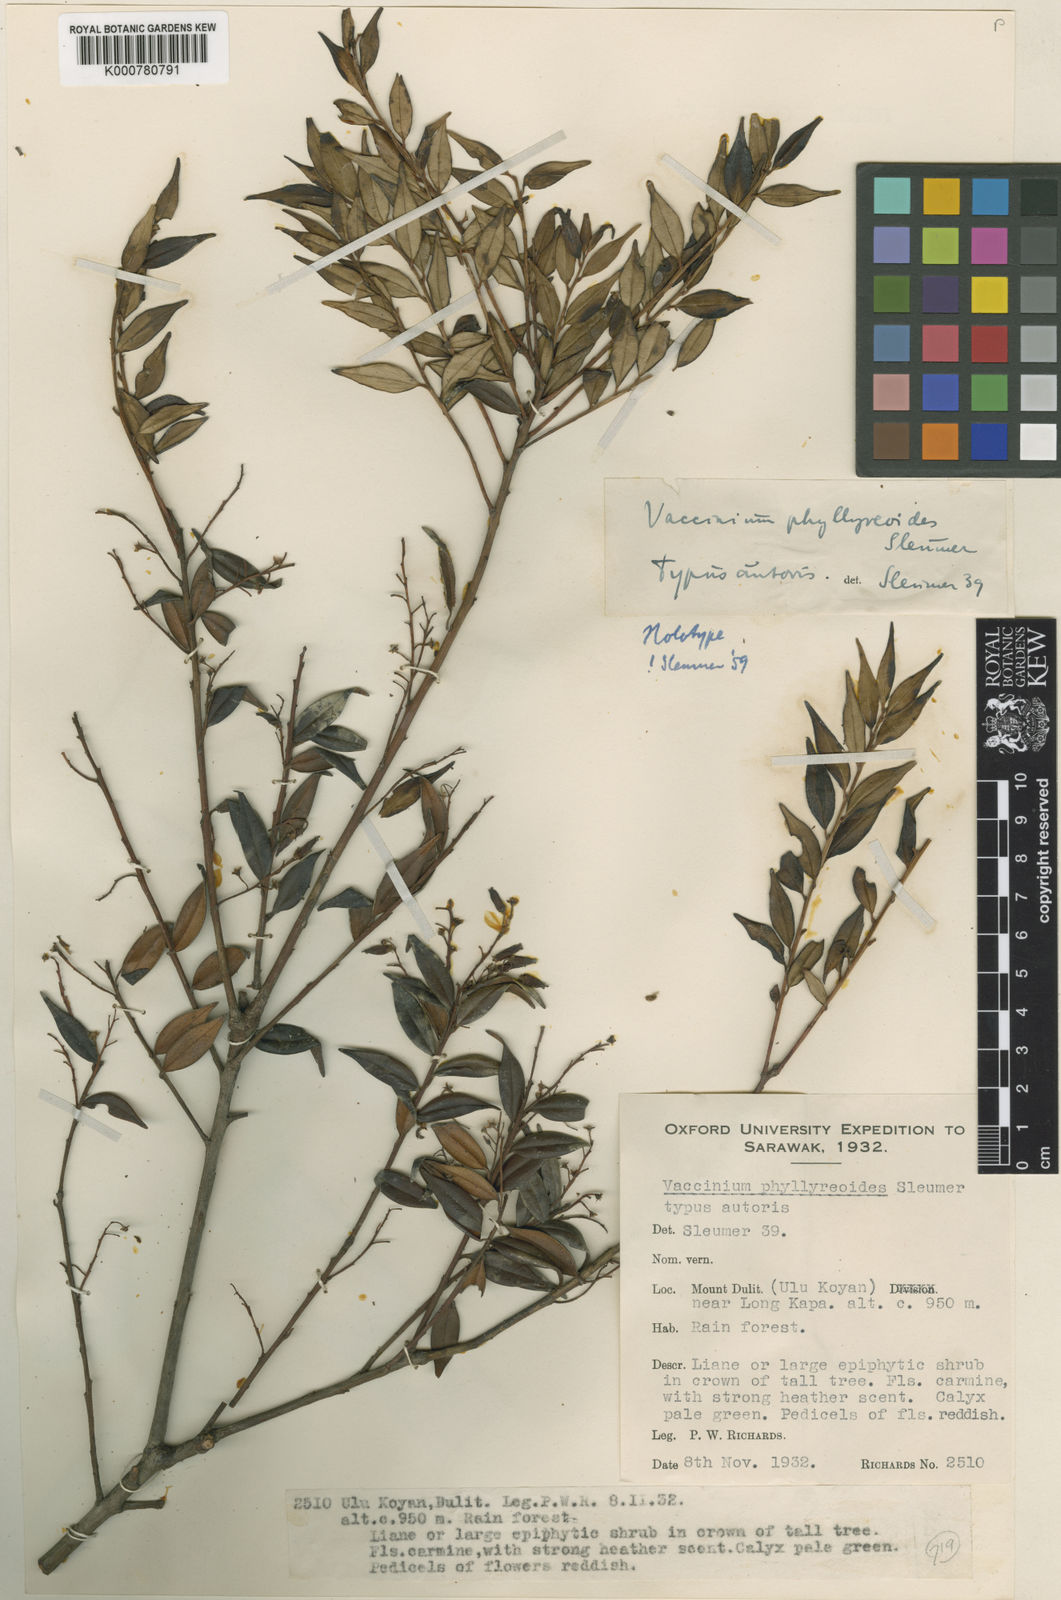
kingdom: Plantae
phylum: Tracheophyta
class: Magnoliopsida
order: Ericales
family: Ericaceae
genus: Vaccinium
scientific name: Vaccinium phillyreoides
